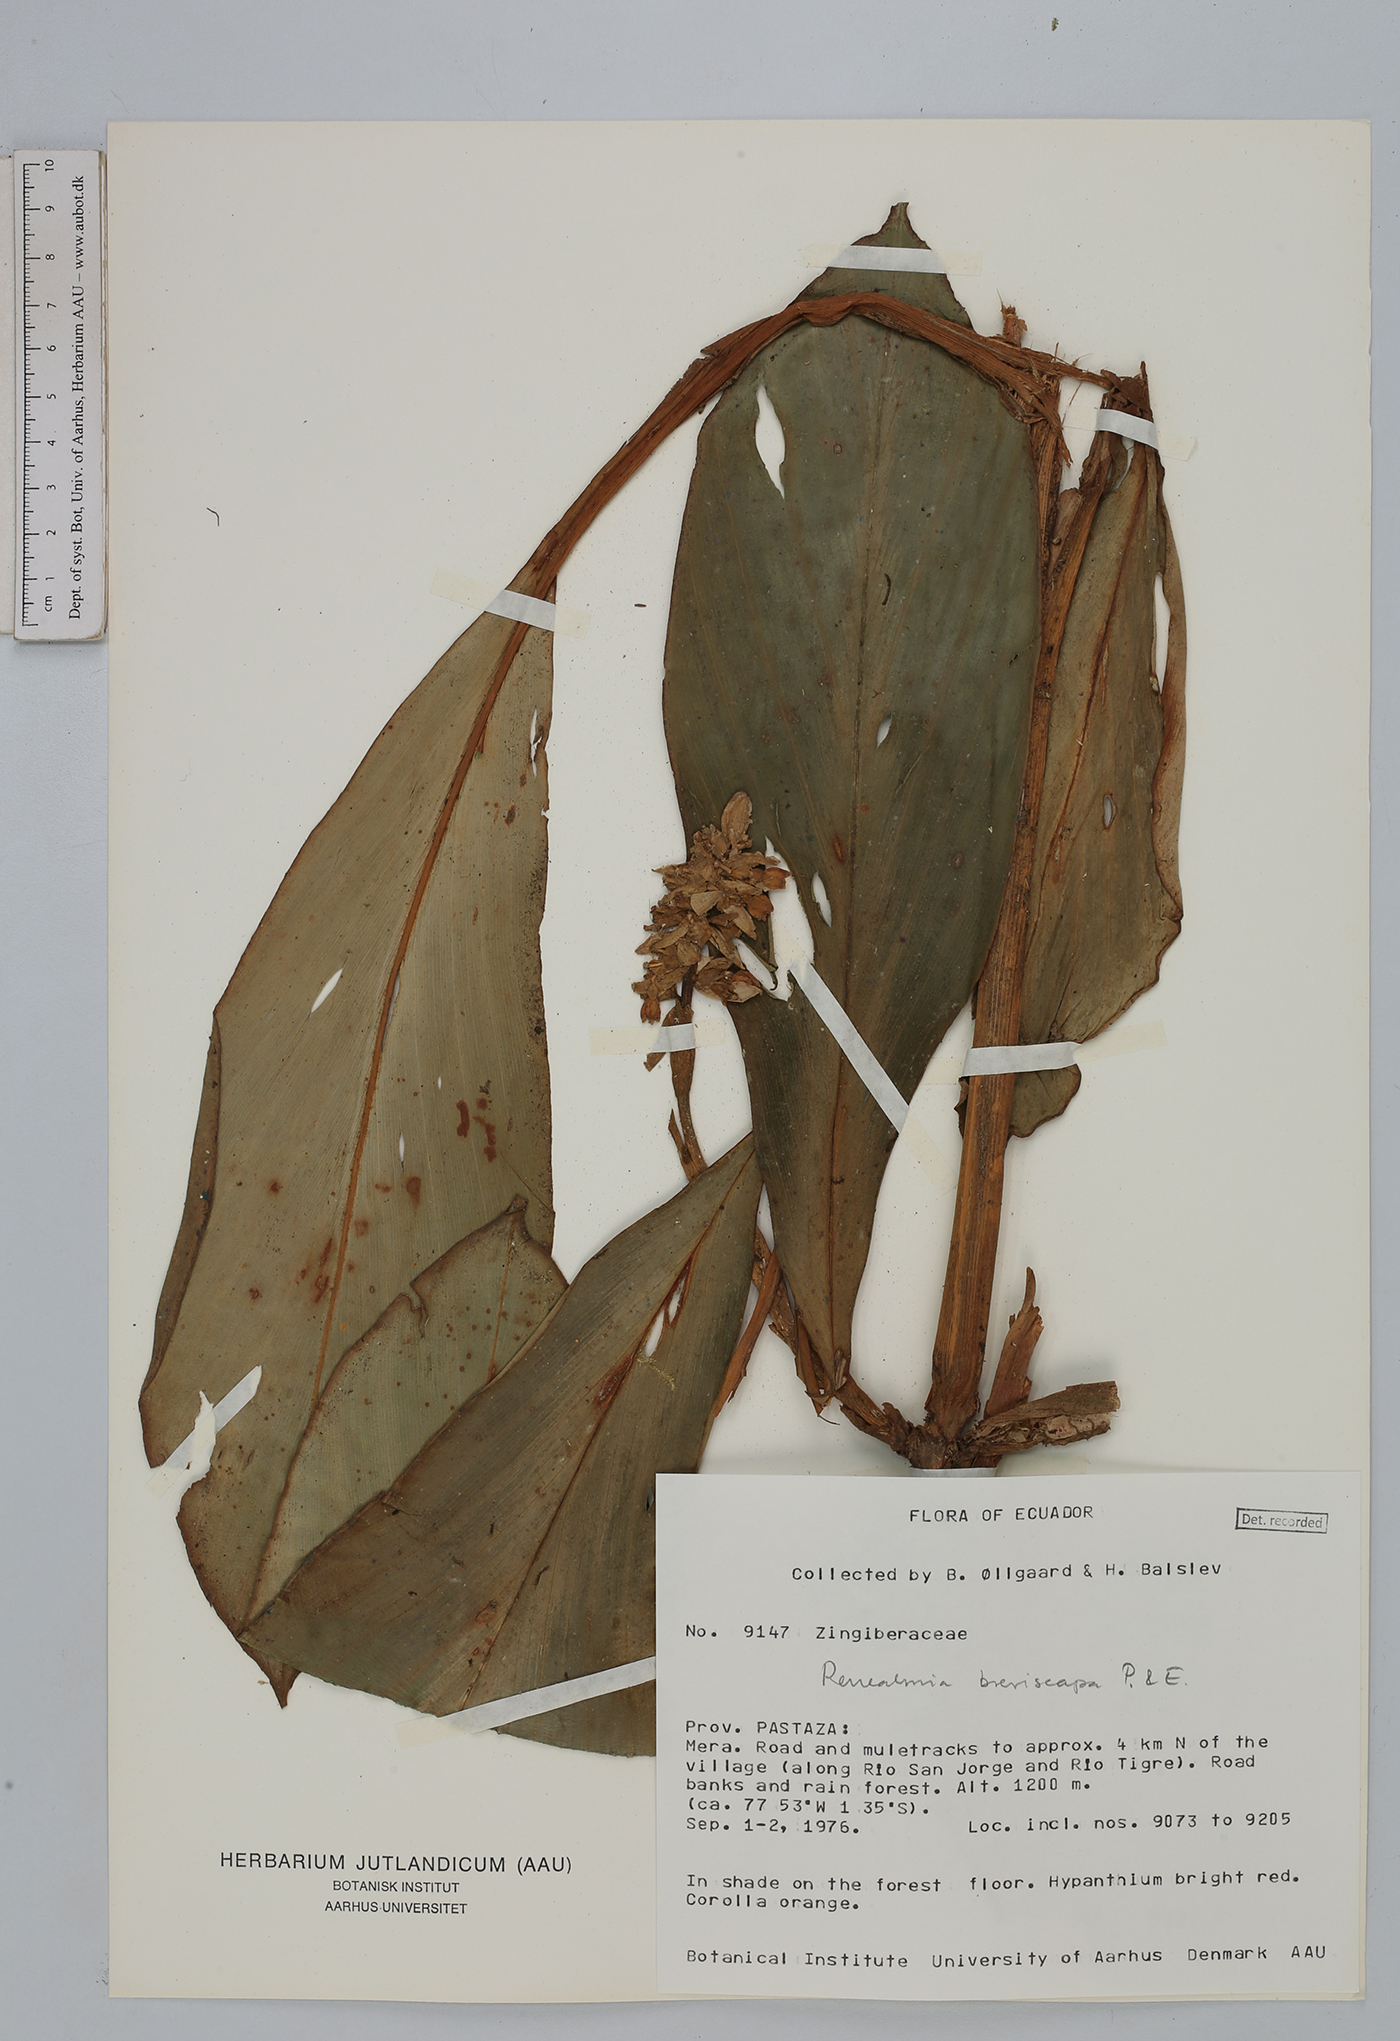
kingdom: Plantae
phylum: Tracheophyta
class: Liliopsida
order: Zingiberales
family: Zingiberaceae
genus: Renealmia
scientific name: Renealmia breviscapa
